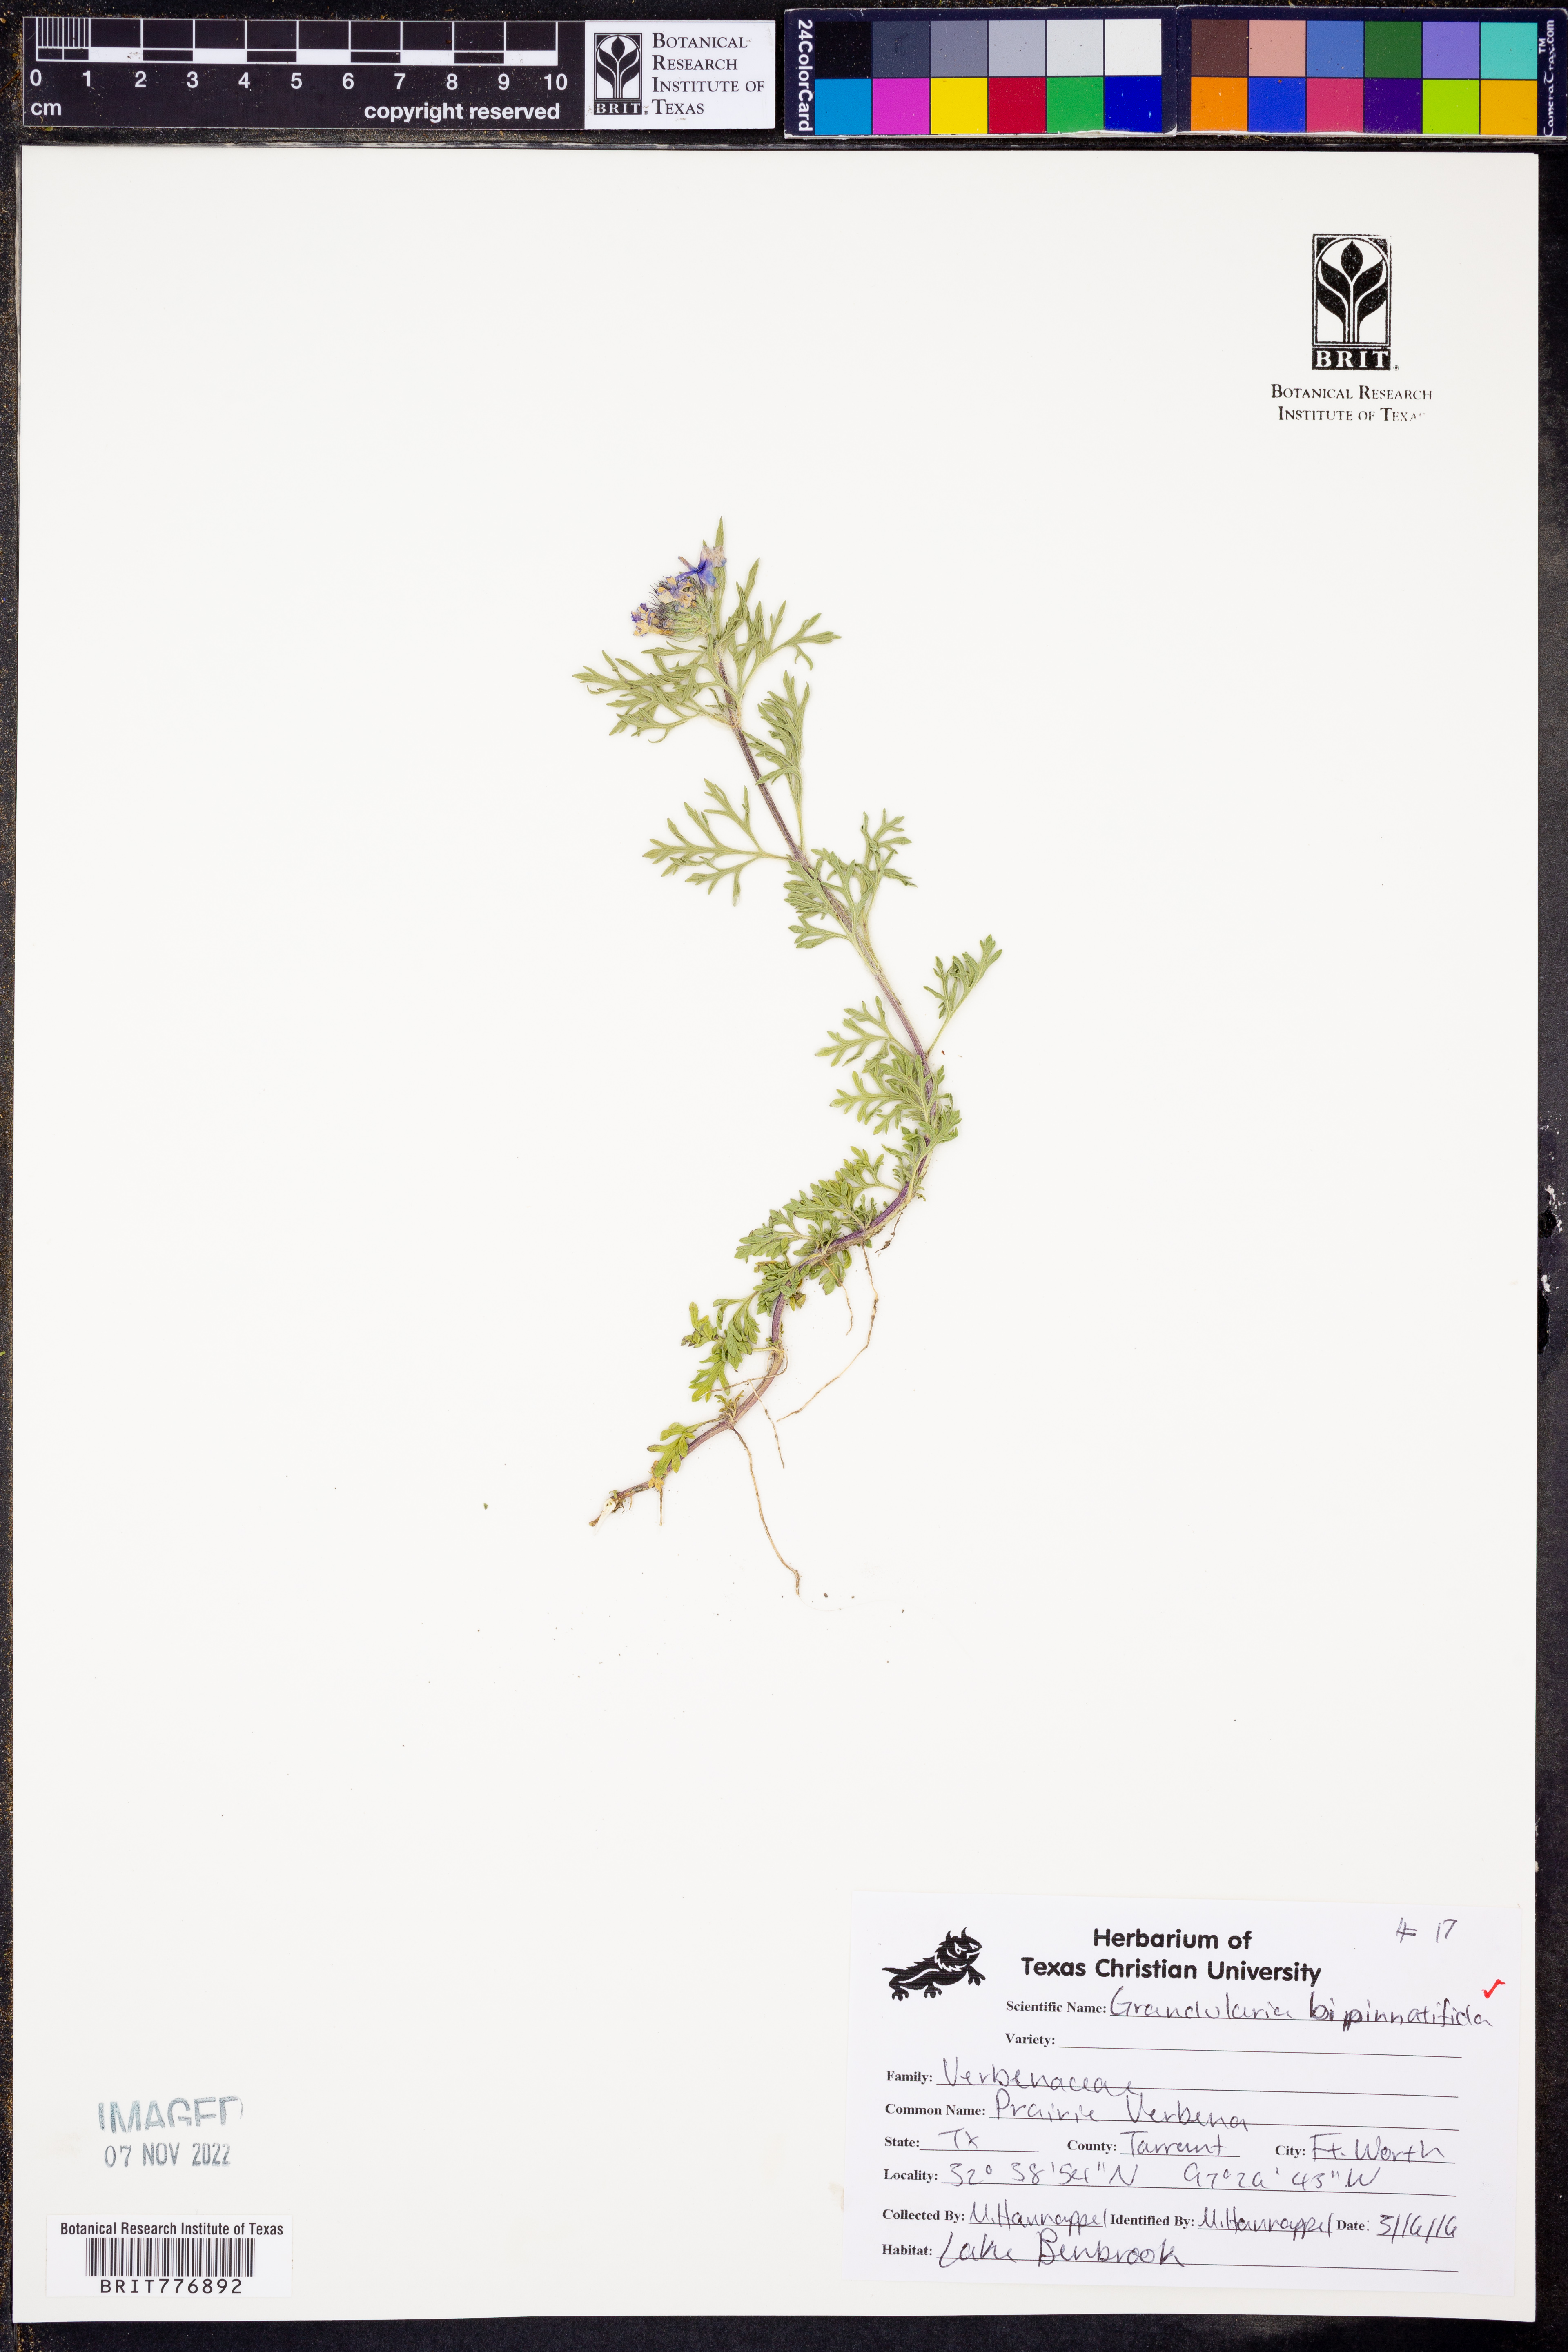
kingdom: Plantae
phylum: Tracheophyta
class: Magnoliopsida
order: Lamiales
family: Verbenaceae
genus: Verbena
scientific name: Verbena bipinnatifida
